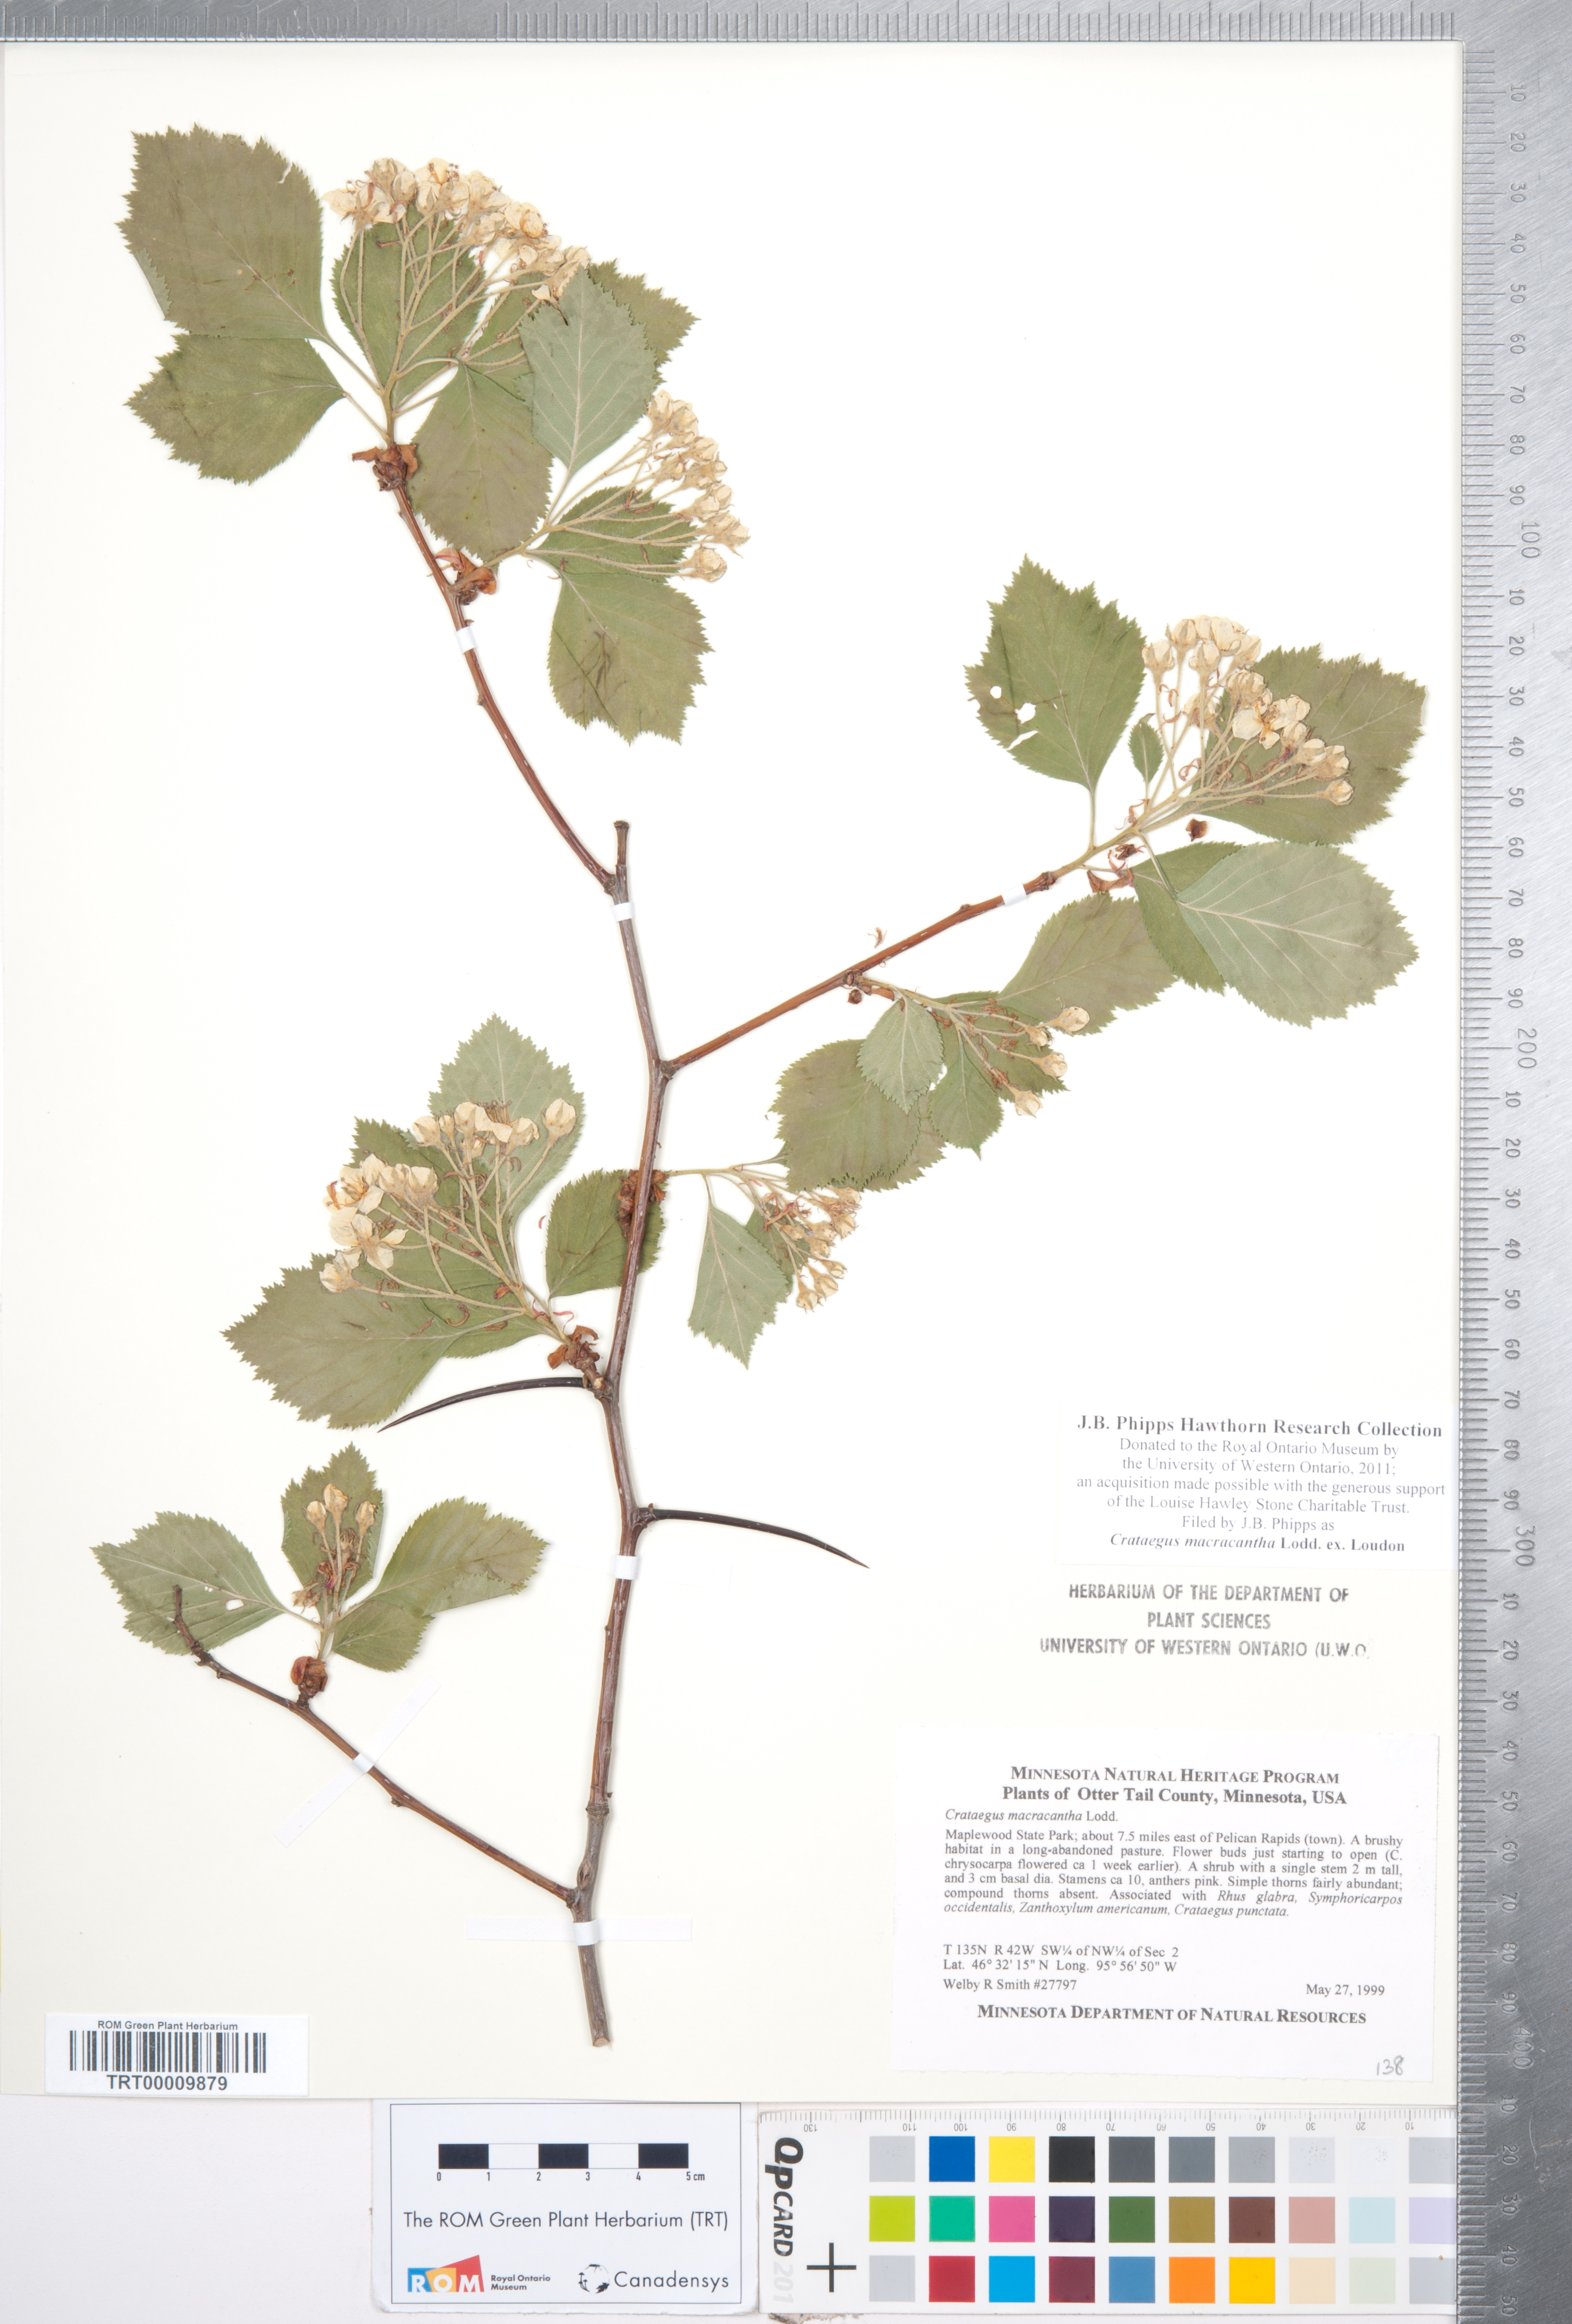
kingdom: Plantae
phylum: Tracheophyta
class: Magnoliopsida
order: Rosales
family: Rosaceae
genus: Crataegus
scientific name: Crataegus macracantha
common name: Large-thorn hawthorn
